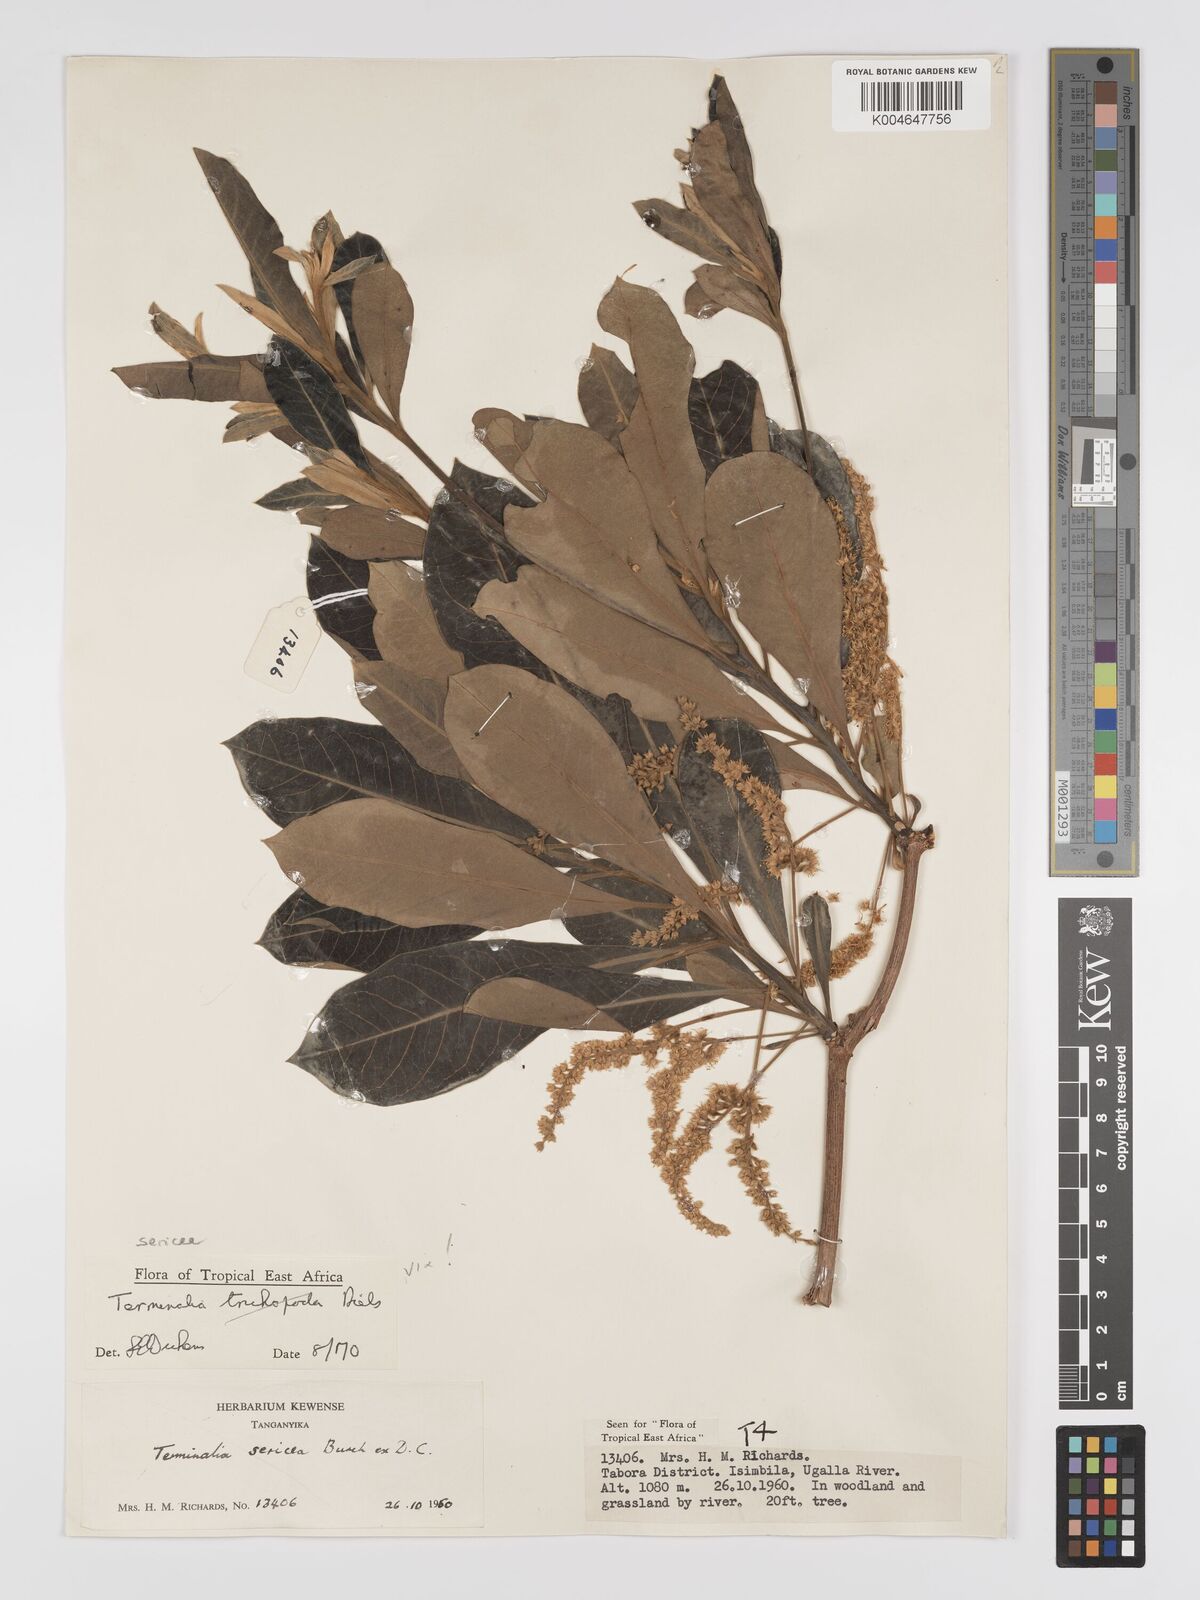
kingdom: Plantae
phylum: Tracheophyta
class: Magnoliopsida
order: Myrtales
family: Combretaceae
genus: Terminalia
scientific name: Terminalia
